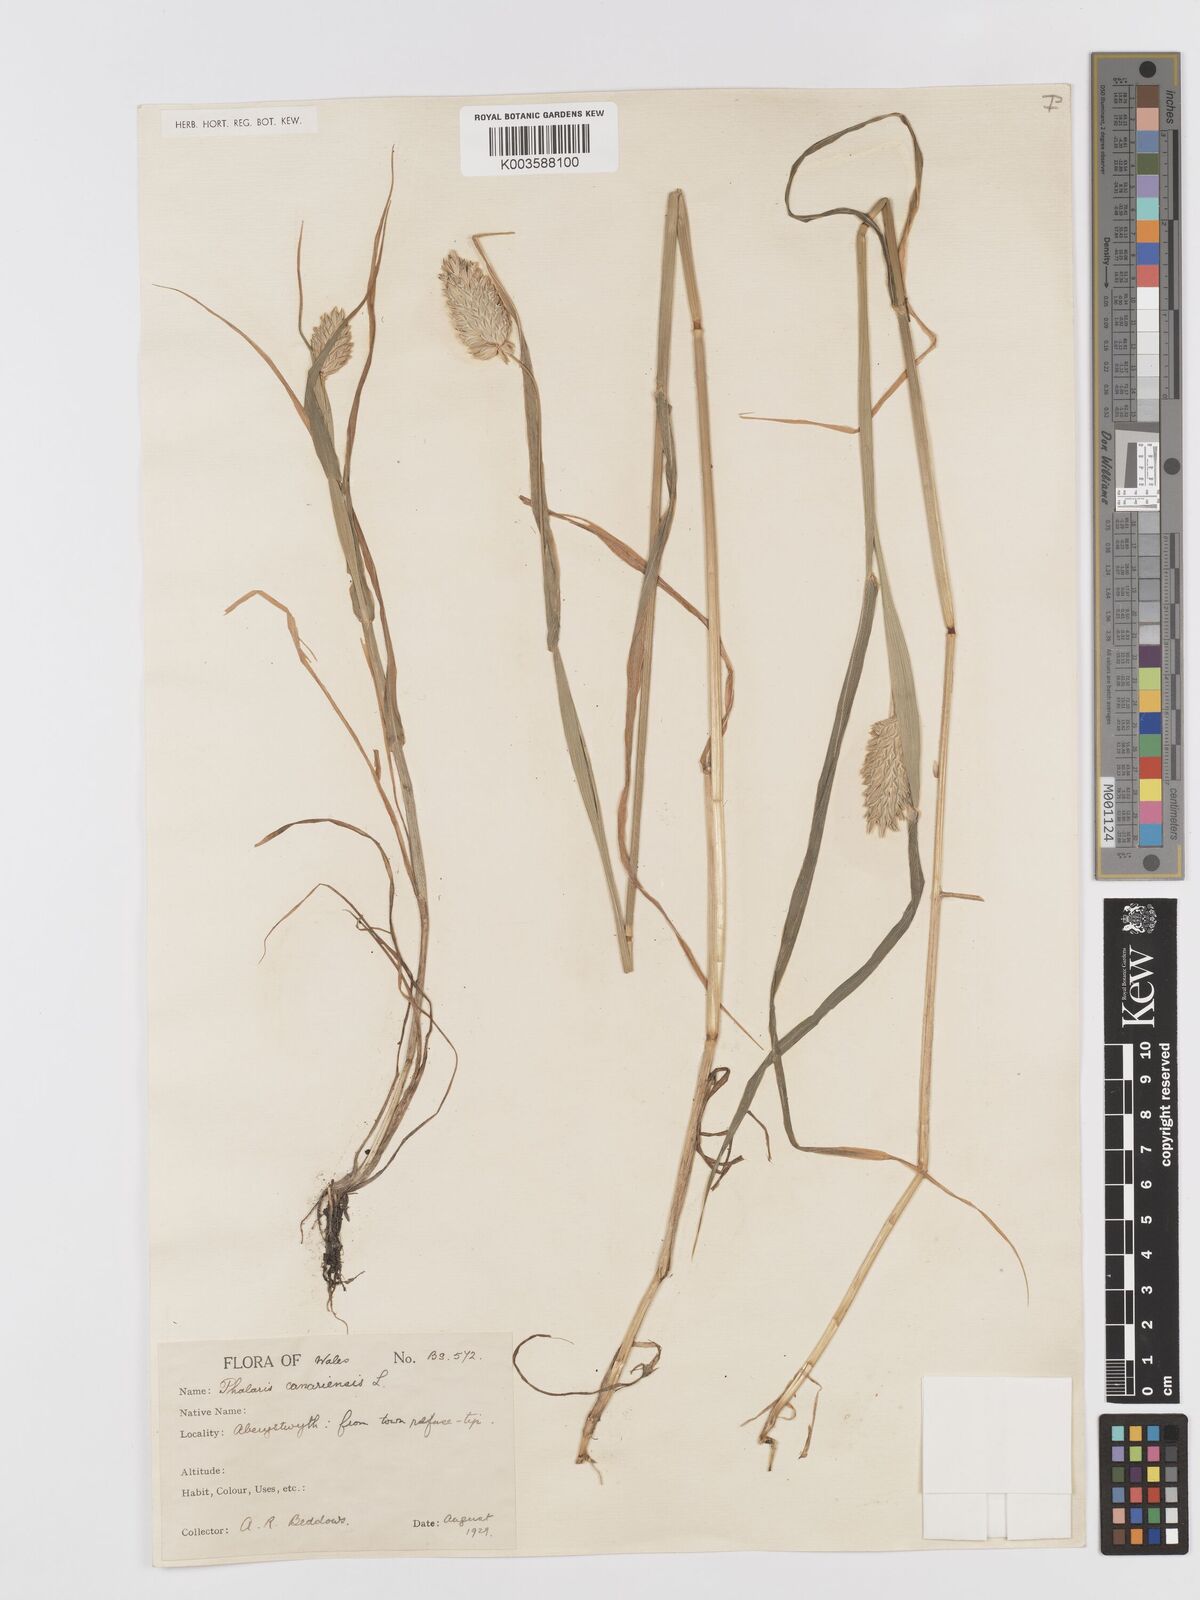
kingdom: Plantae
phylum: Tracheophyta
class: Liliopsida
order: Poales
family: Poaceae
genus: Phalaris
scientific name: Phalaris canariensis
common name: Annual canarygrass
